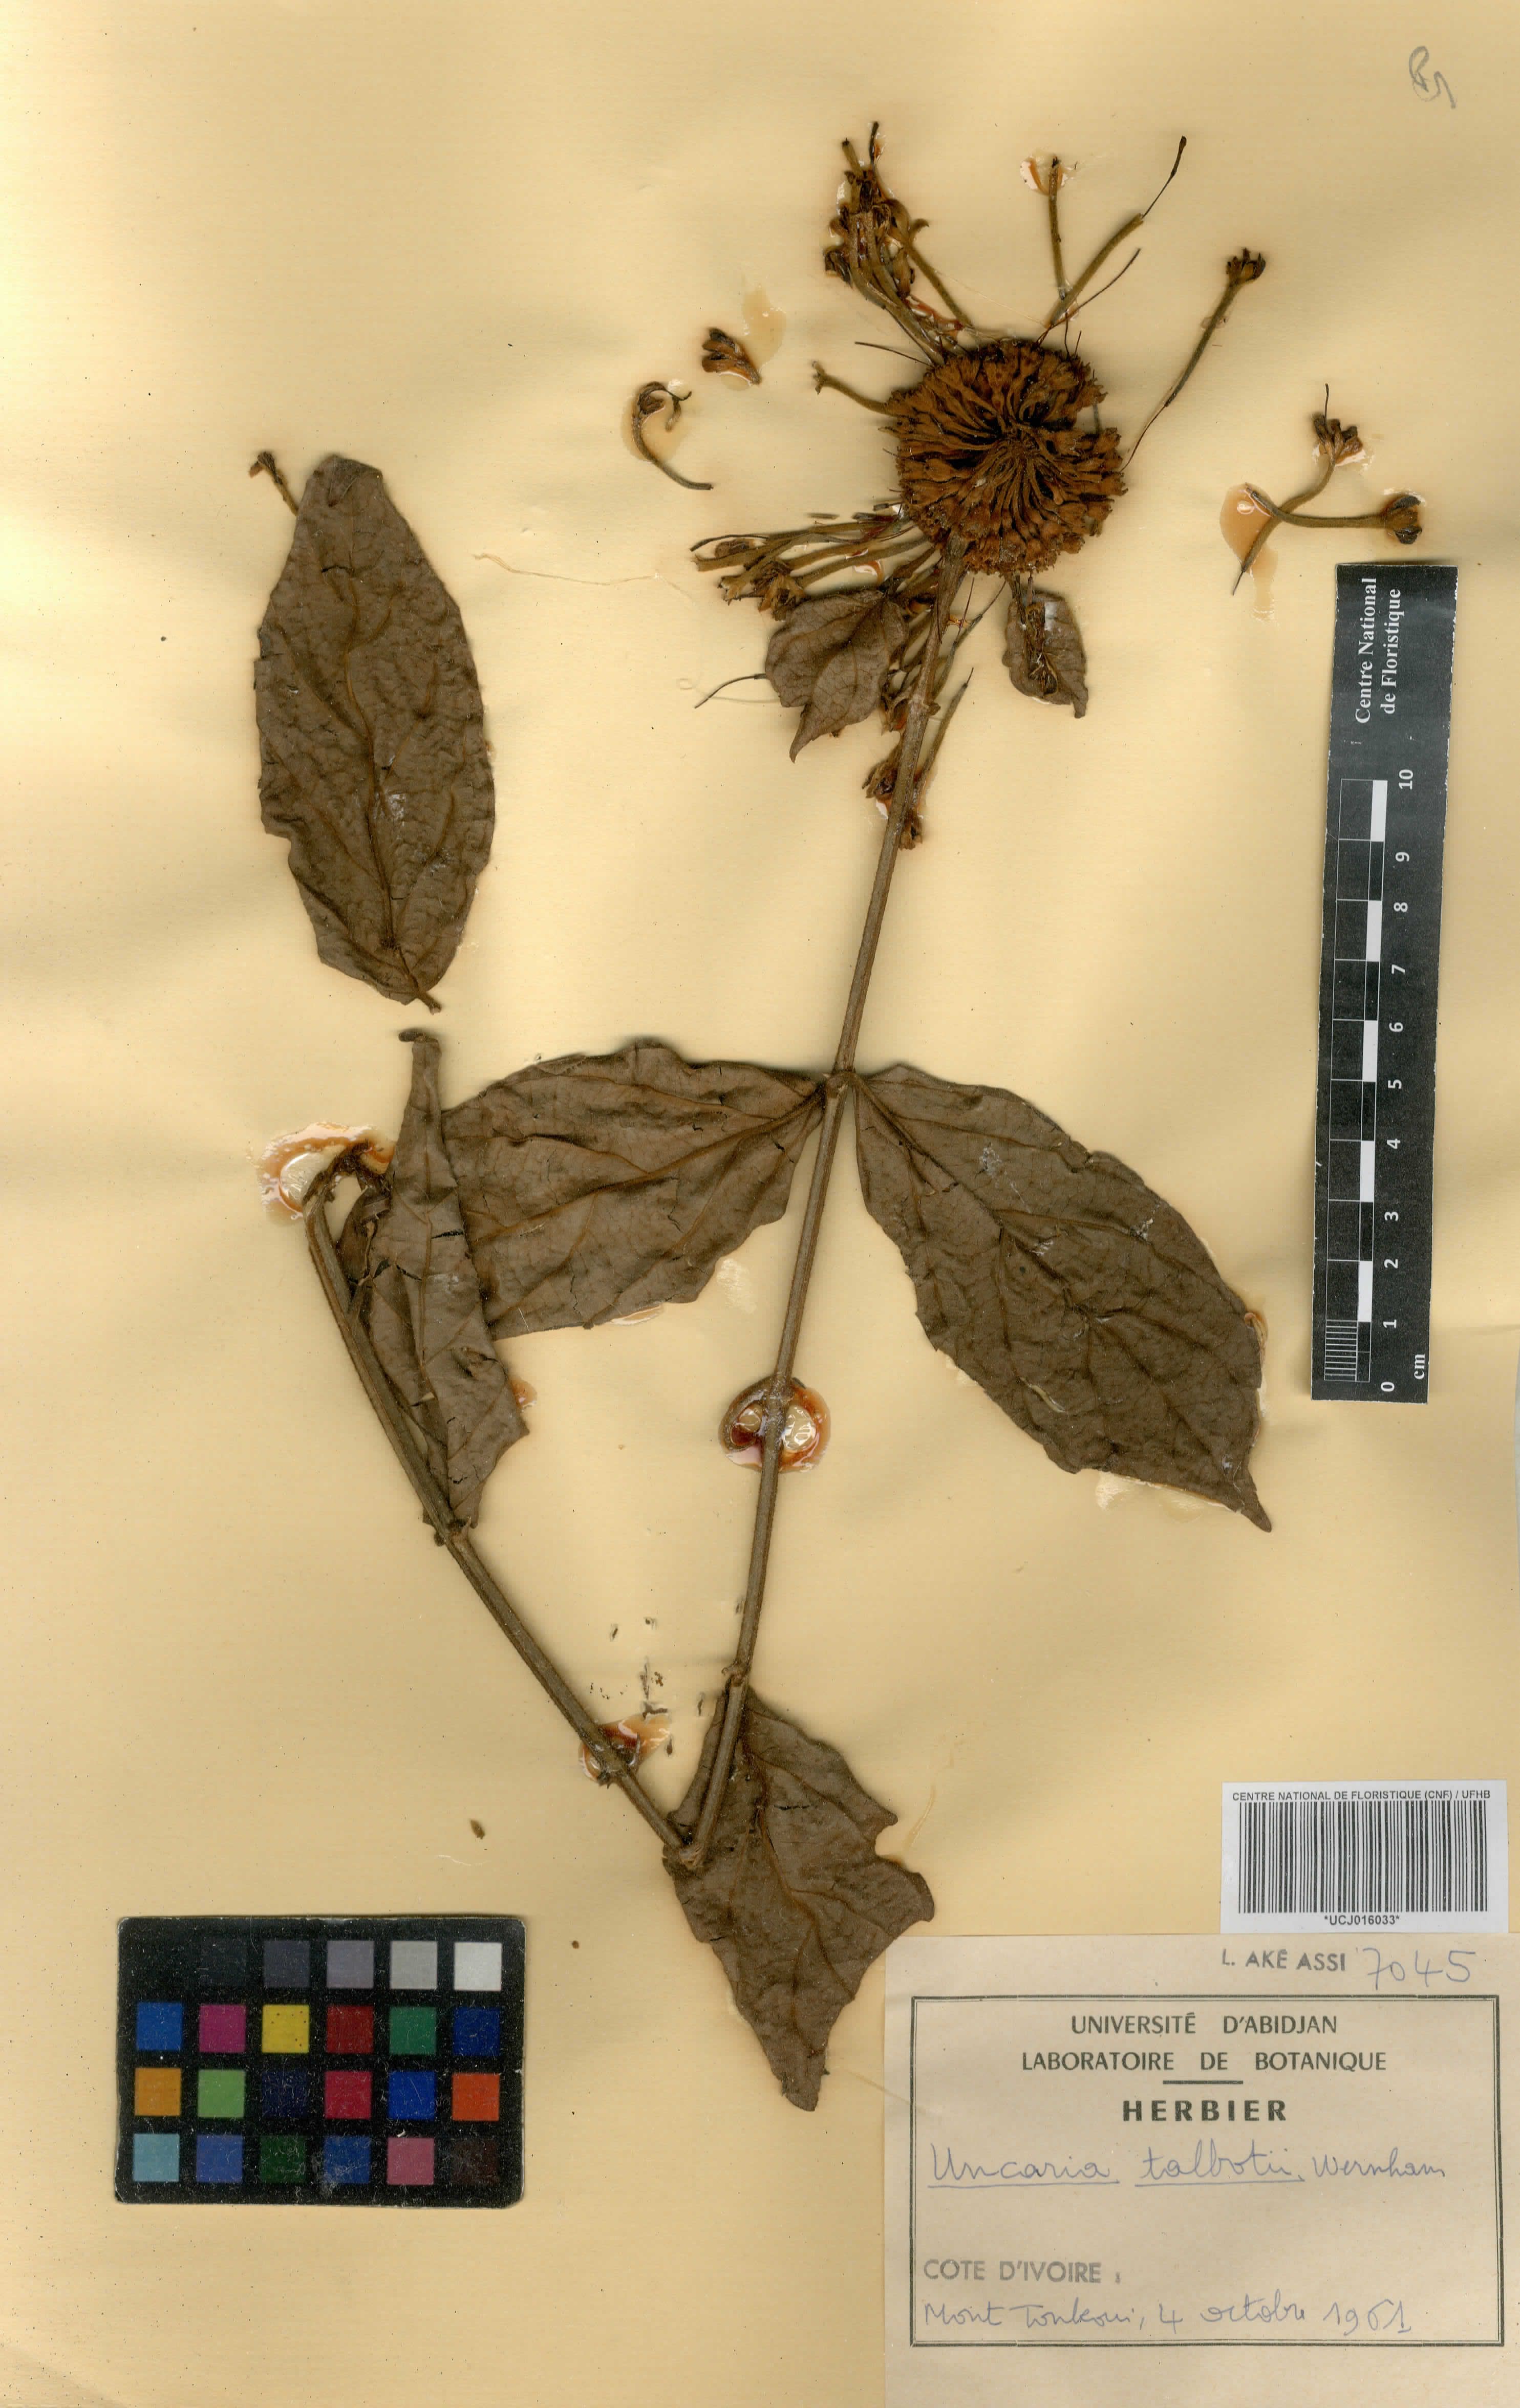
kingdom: Plantae
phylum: Tracheophyta
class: Magnoliopsida
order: Gentianales
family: Rubiaceae
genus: Uncaria
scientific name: Uncaria talbotii
